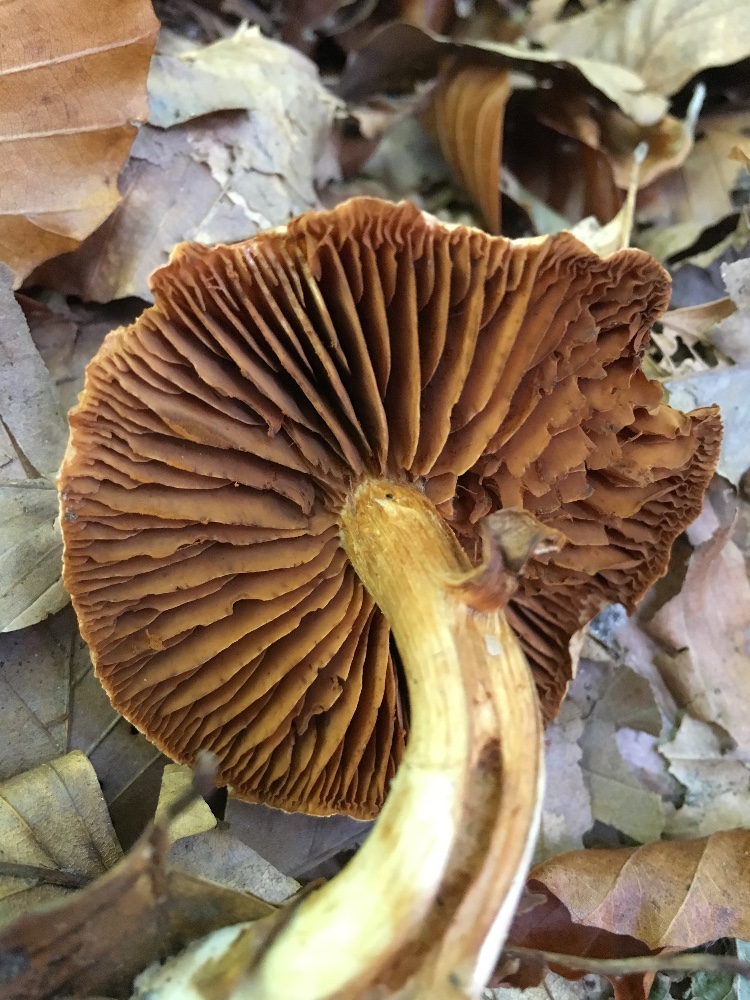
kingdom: Fungi
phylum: Basidiomycota
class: Agaricomycetes
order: Agaricales
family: Cortinariaceae
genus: Cortinarius
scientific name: Cortinarius
